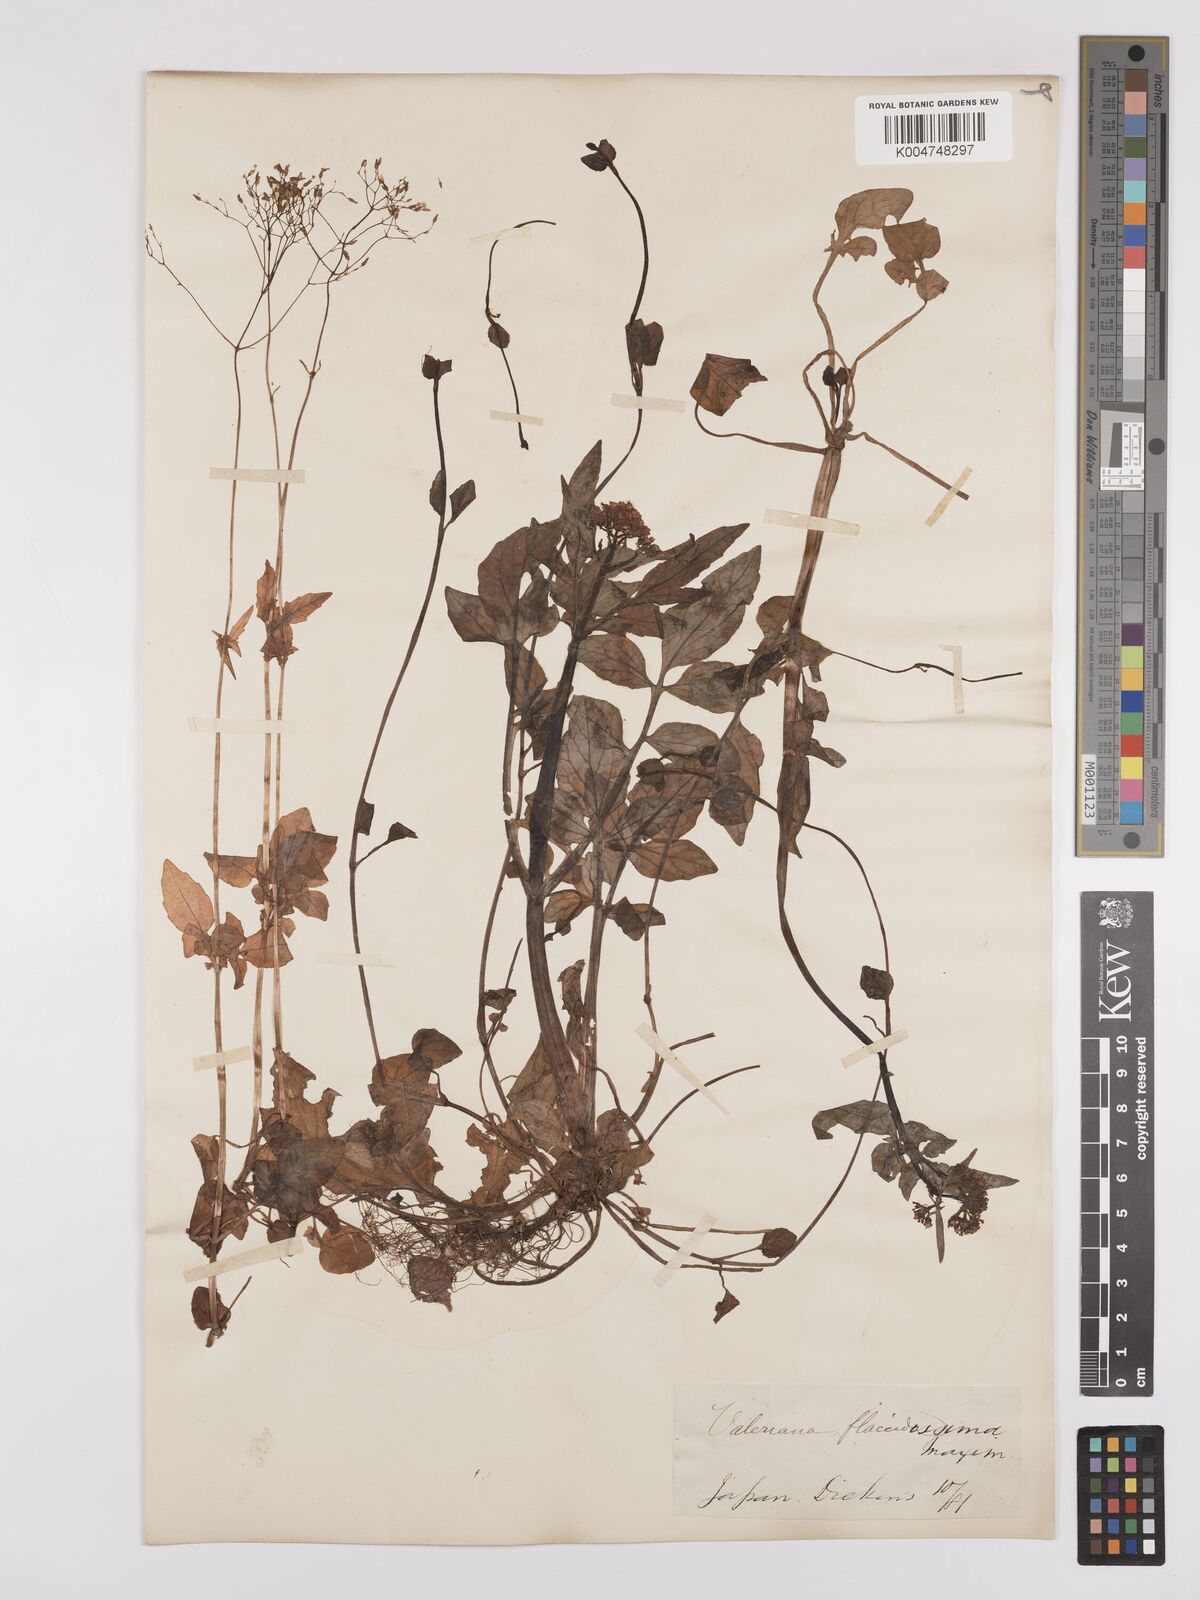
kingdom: Plantae
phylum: Tracheophyta
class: Magnoliopsida
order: Dipsacales
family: Caprifoliaceae
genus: Valeriana
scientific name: Valeriana flaccidissima
